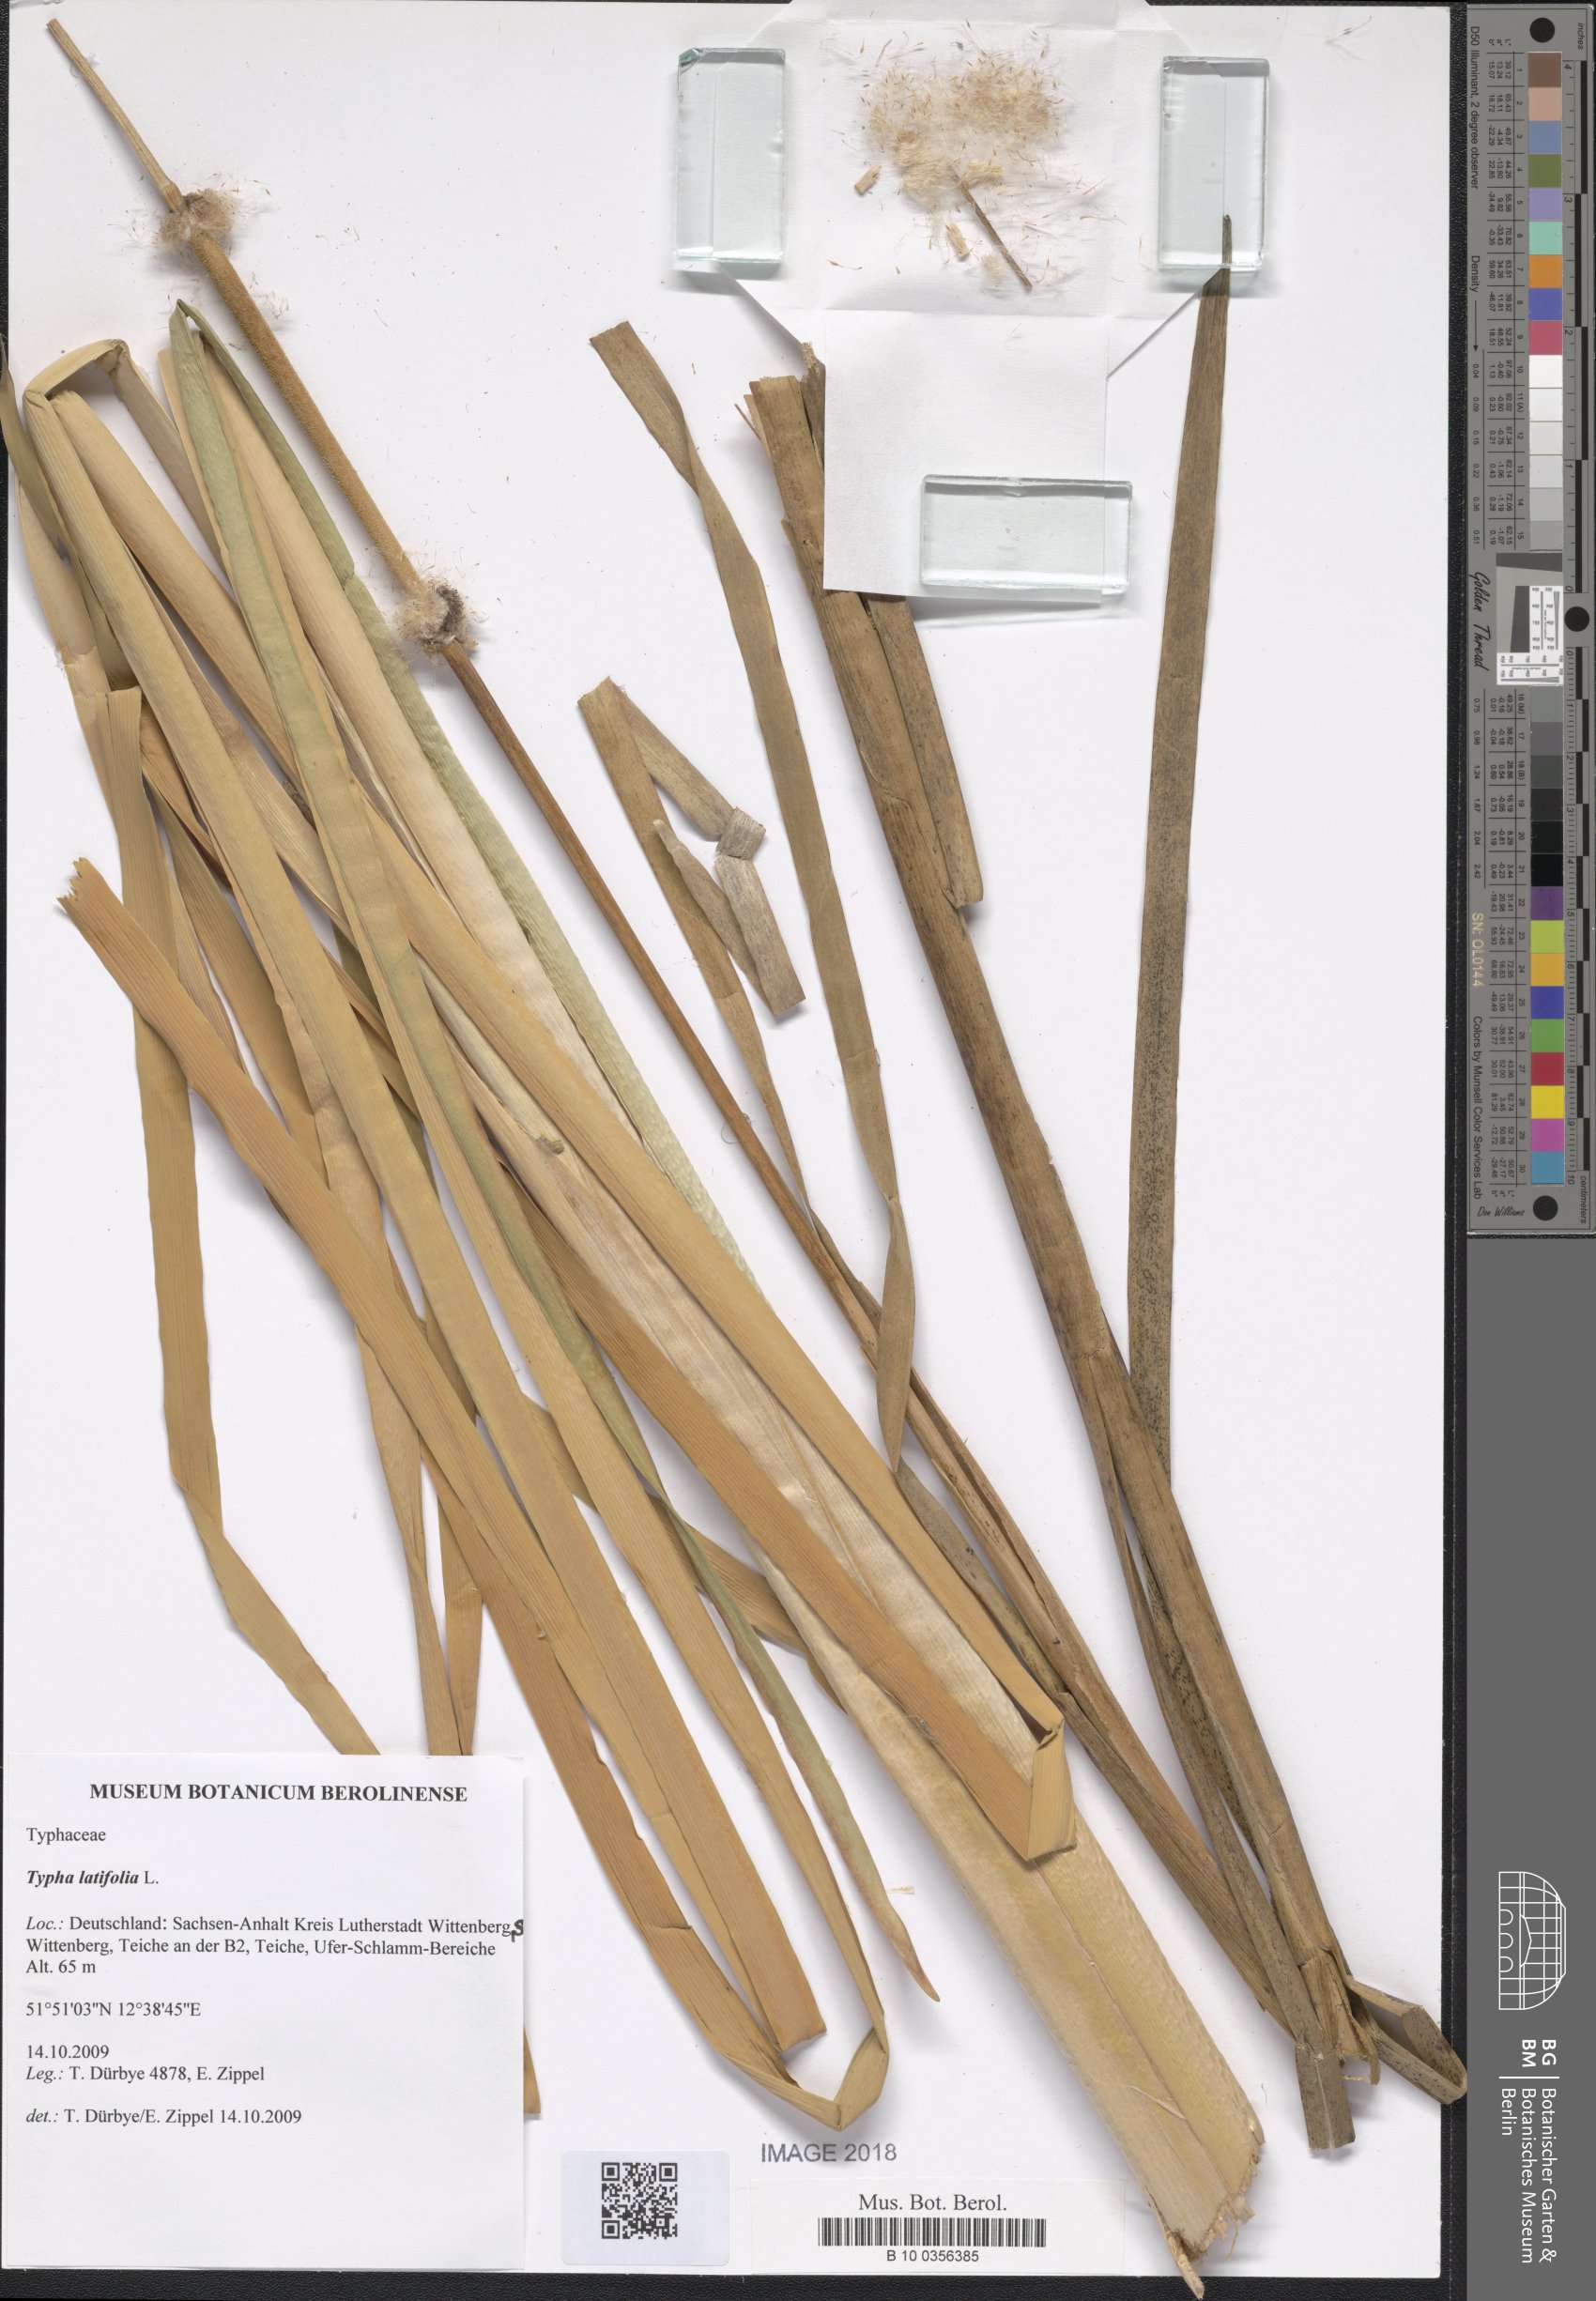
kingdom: Plantae
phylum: Tracheophyta
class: Liliopsida
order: Poales
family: Typhaceae
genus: Typha
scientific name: Typha latifolia
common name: Broadleaf cattail
